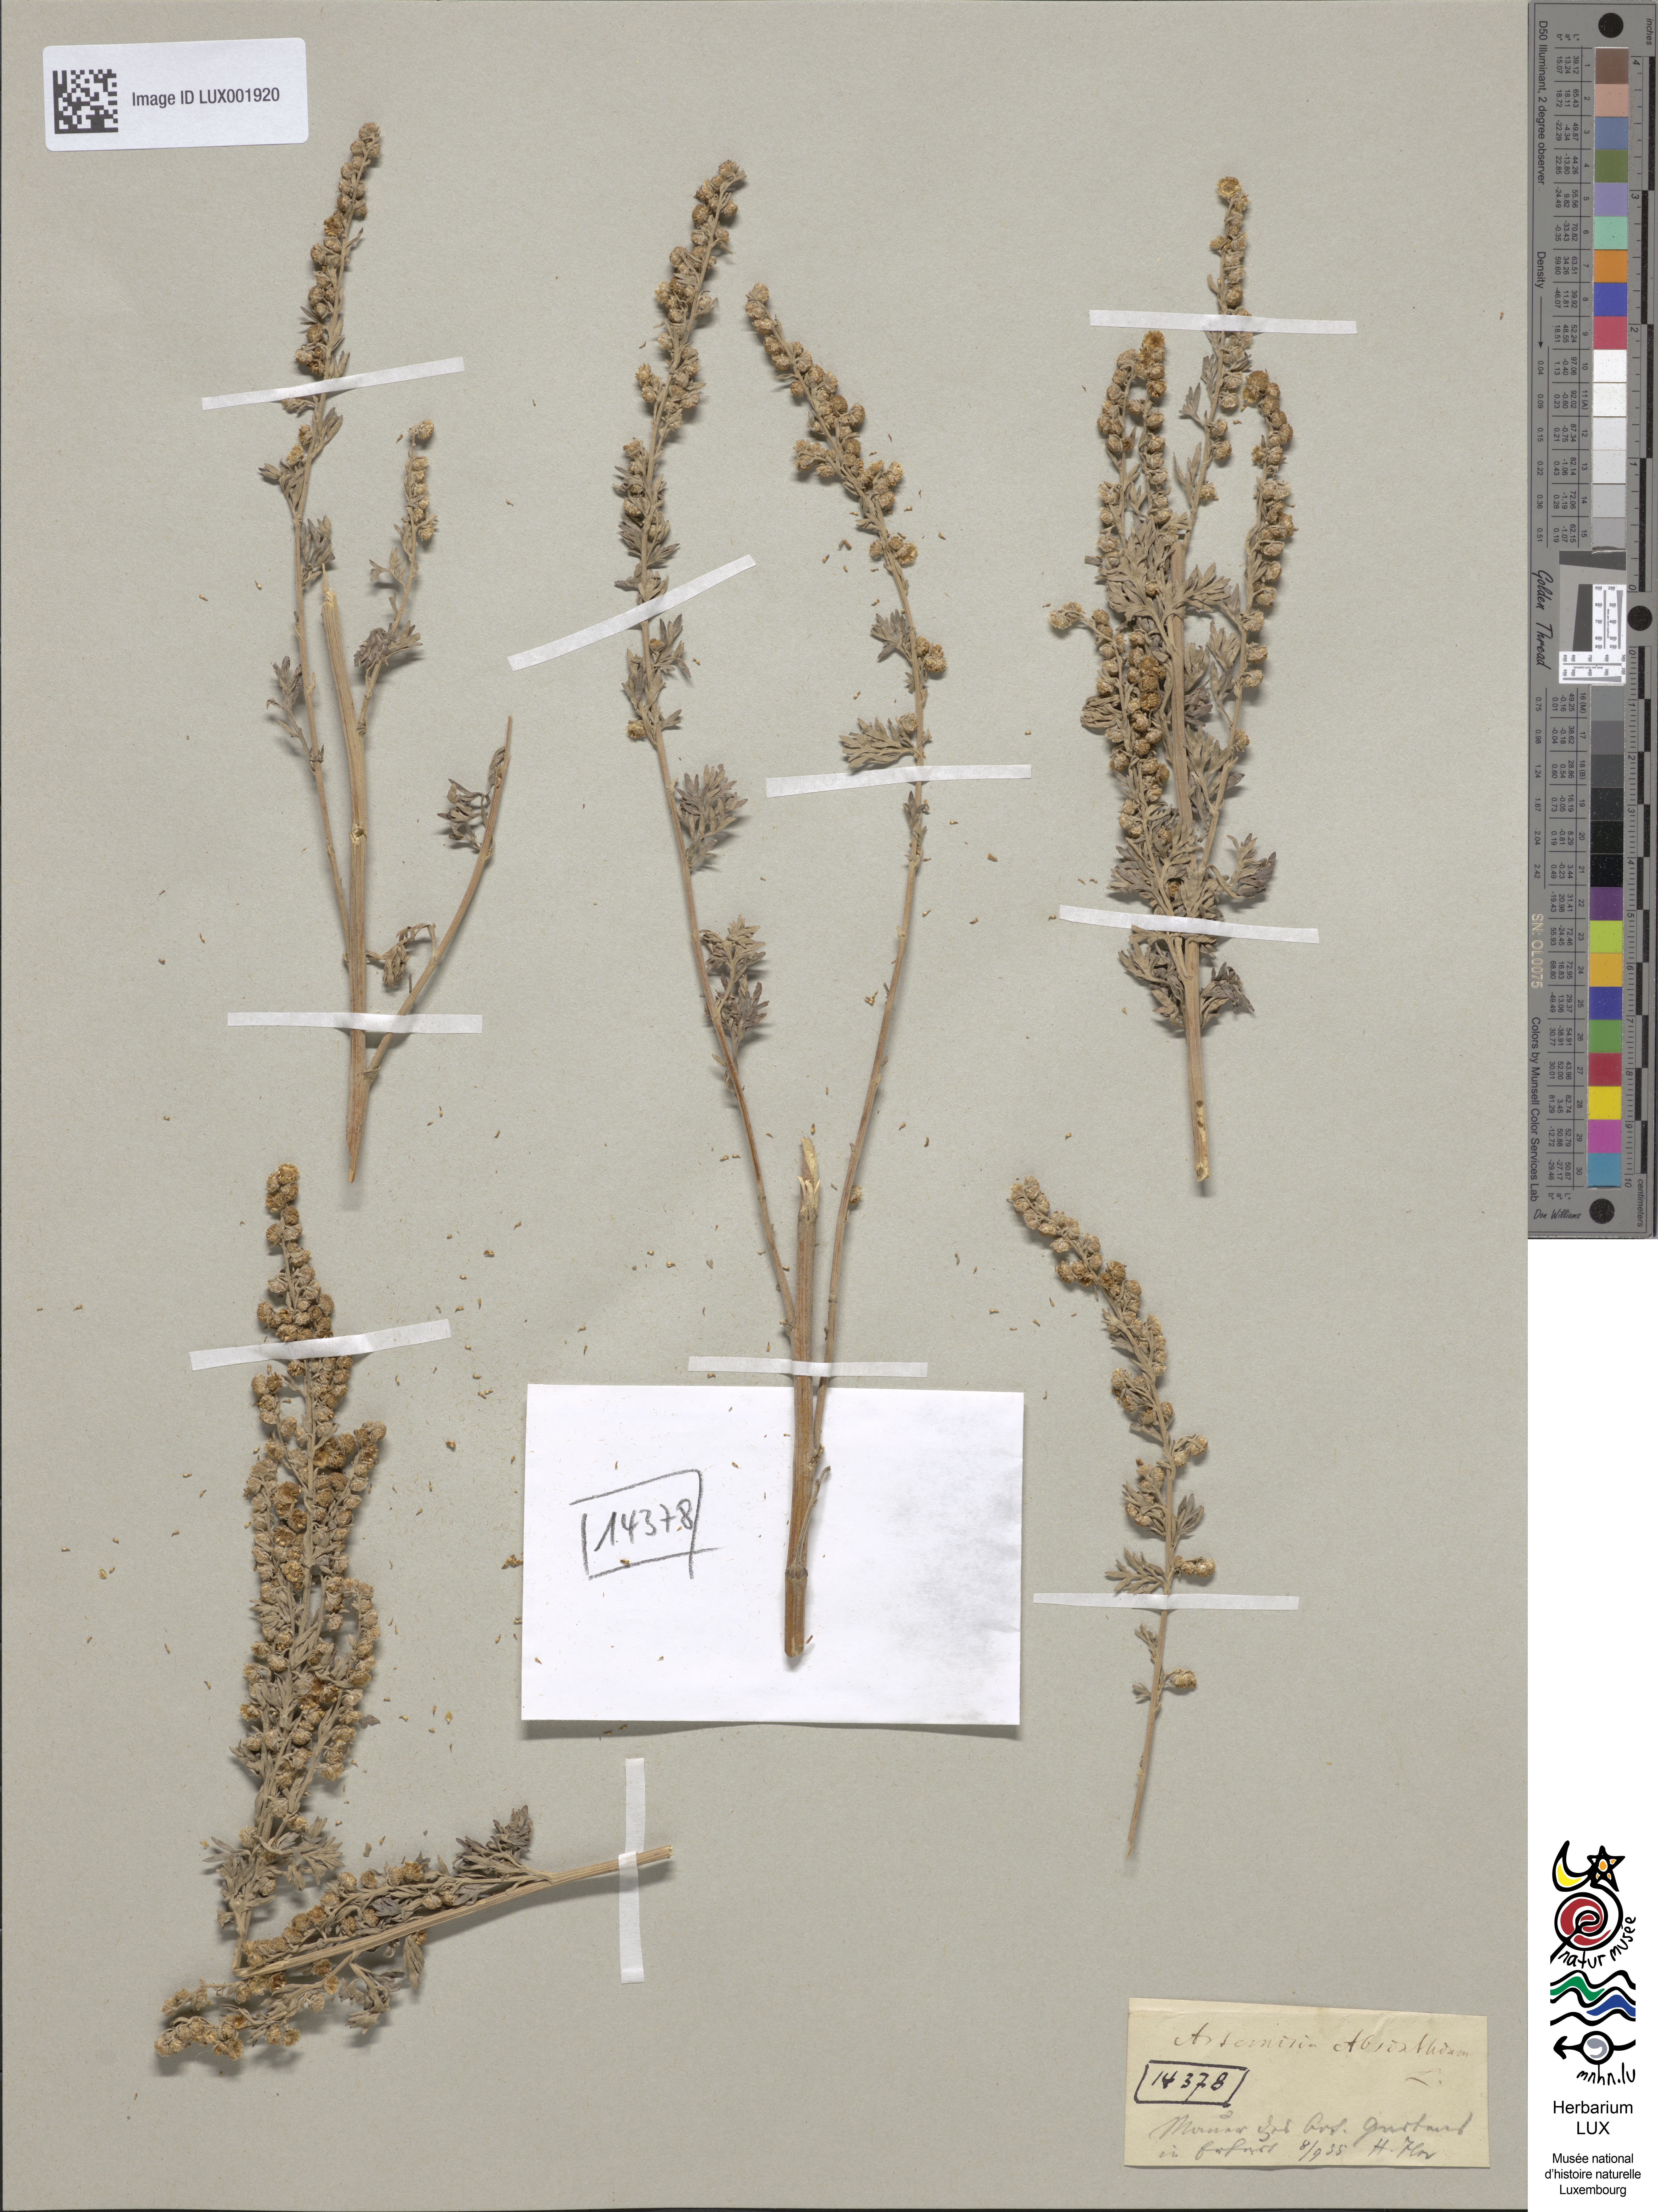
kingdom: Plantae
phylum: Tracheophyta
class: Magnoliopsida
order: Asterales
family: Asteraceae
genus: Artemisia
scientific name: Artemisia absinthium
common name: Wormwood
